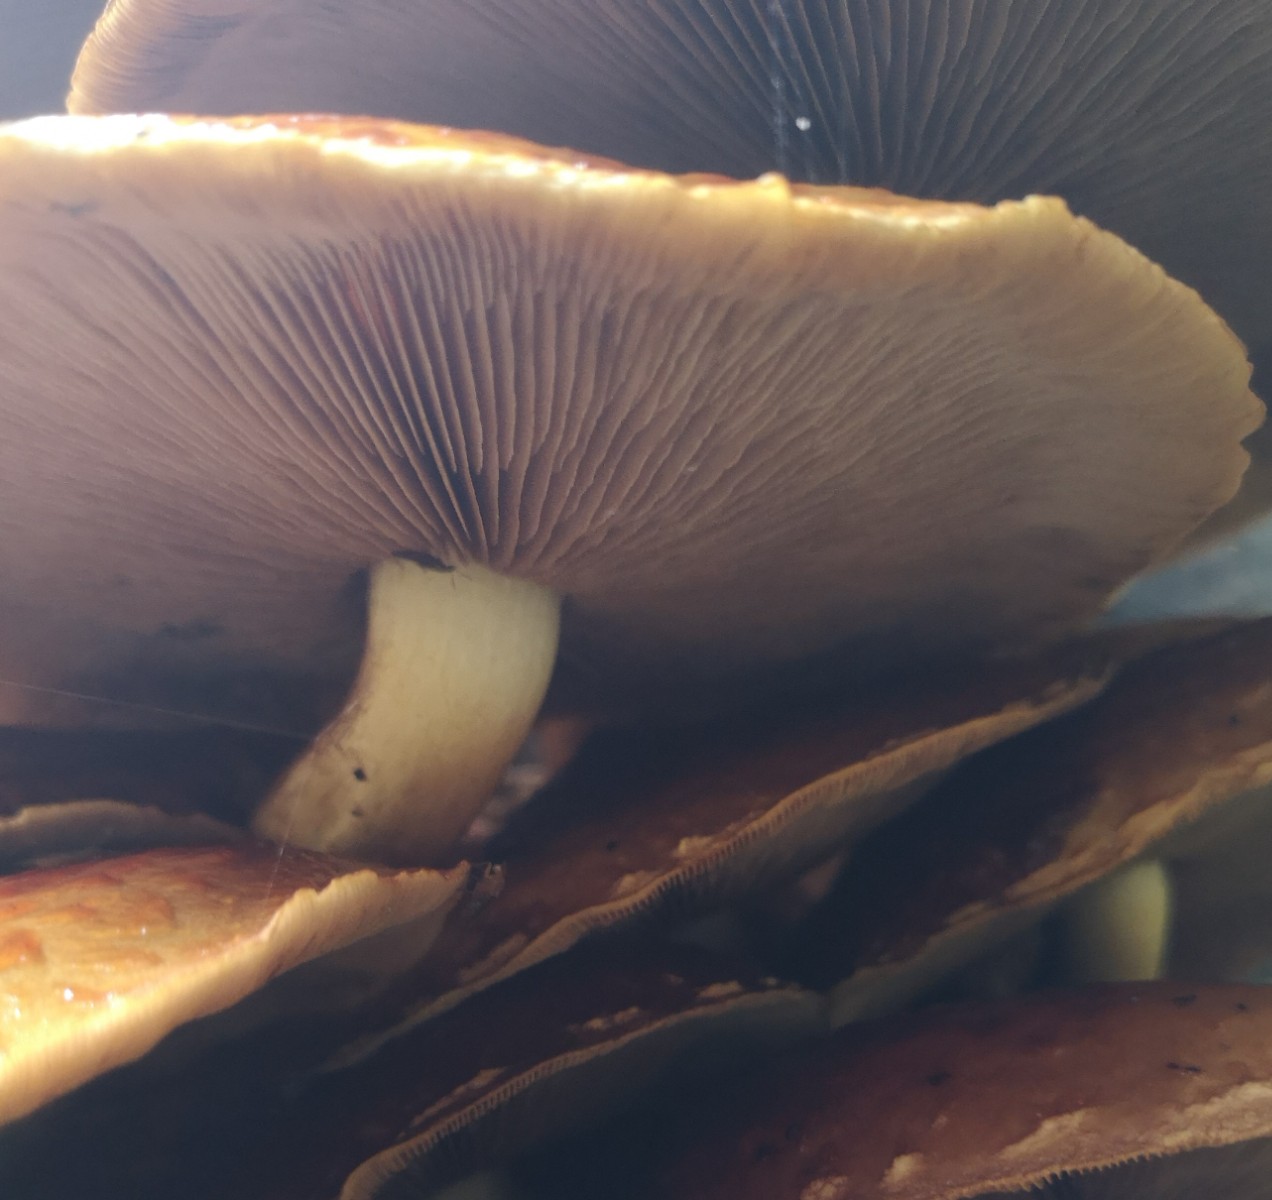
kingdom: Fungi
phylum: Basidiomycota
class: Agaricomycetes
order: Agaricales
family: Strophariaceae
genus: Pholiota
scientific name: Pholiota adiposa
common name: højtsiddende skælhat
